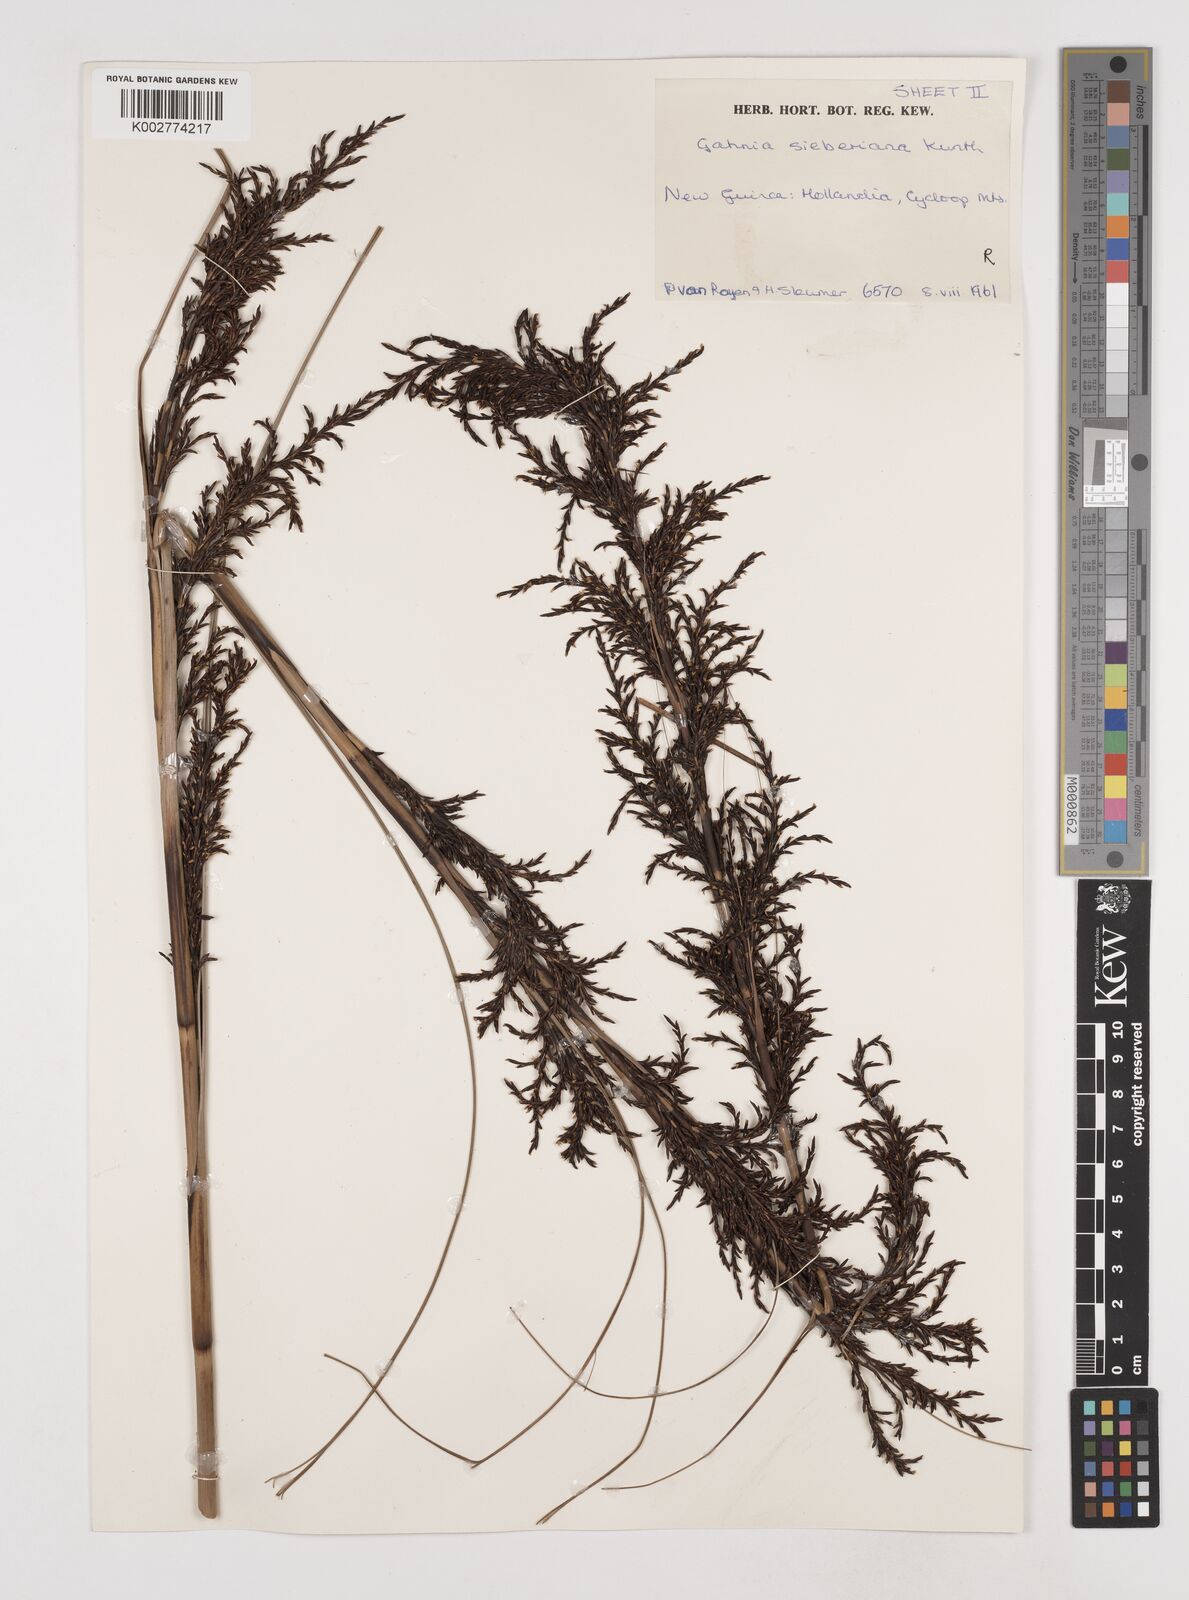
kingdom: Plantae
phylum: Tracheophyta
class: Liliopsida
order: Poales
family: Cyperaceae
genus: Gahnia
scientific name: Gahnia sieberiana
